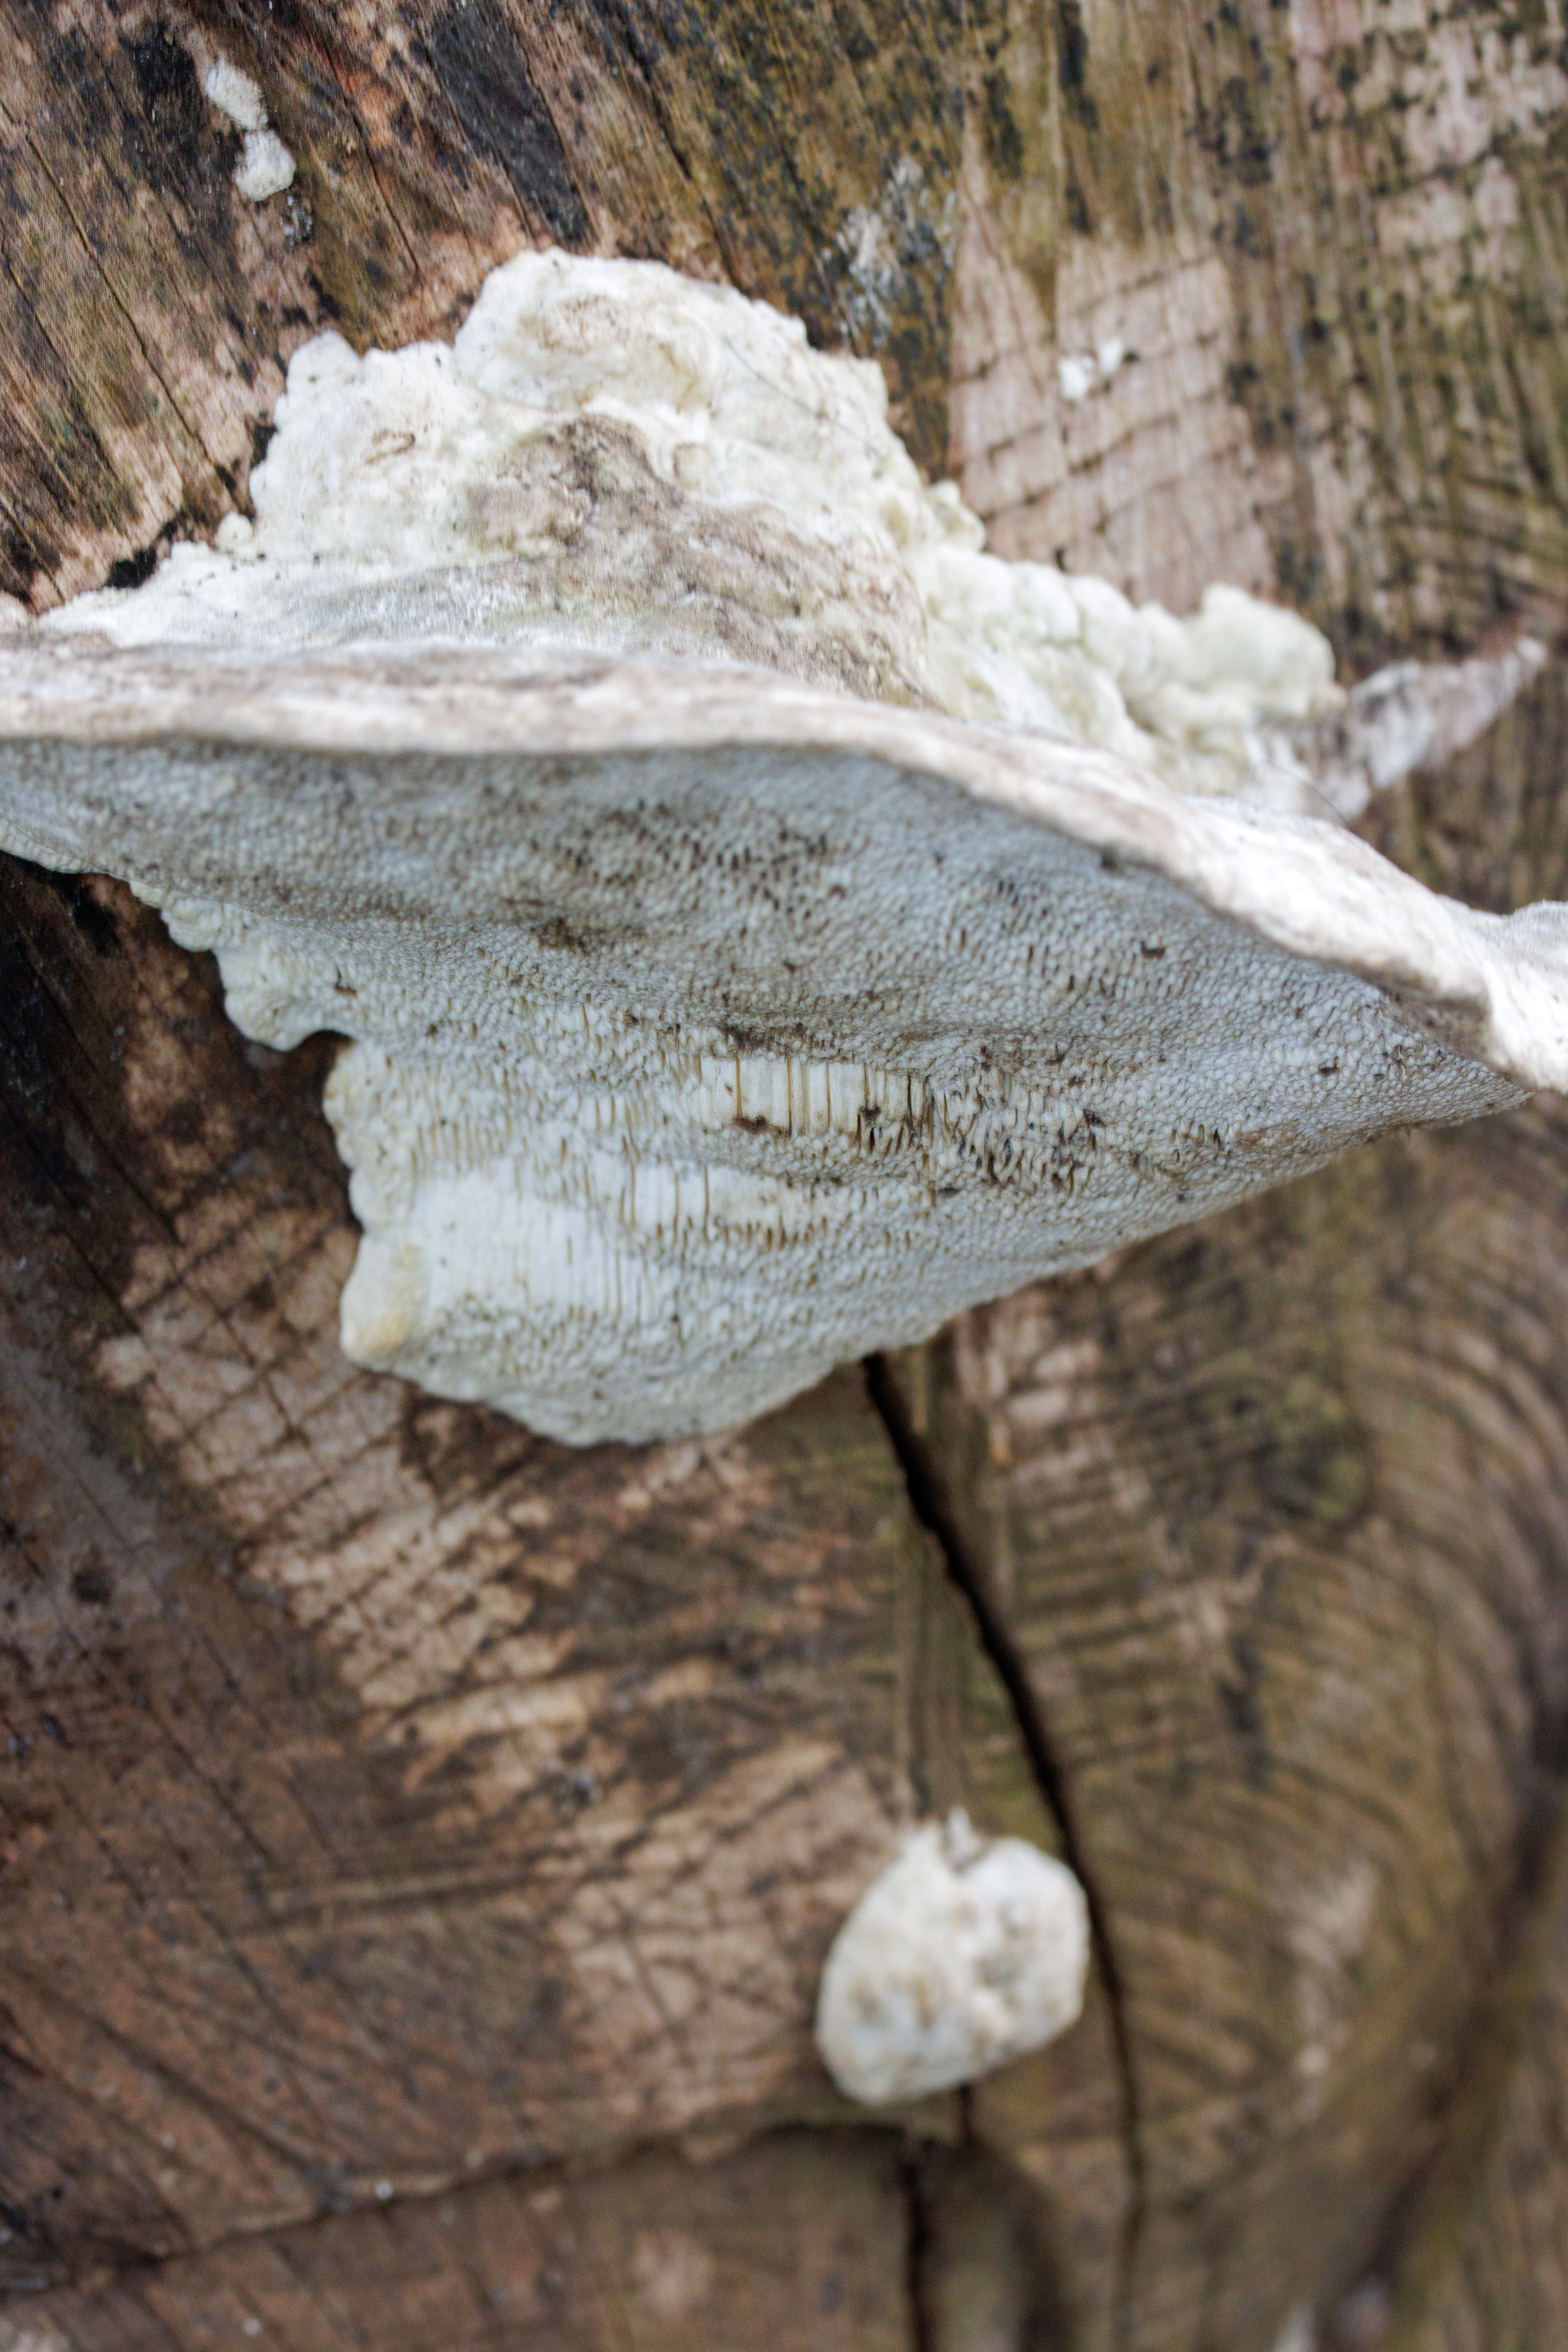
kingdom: Fungi
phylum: Basidiomycota
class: Agaricomycetes
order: Polyporales
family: Polyporaceae
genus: Trametes
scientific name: Trametes gibbosa
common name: Puklet læderporesvamp
